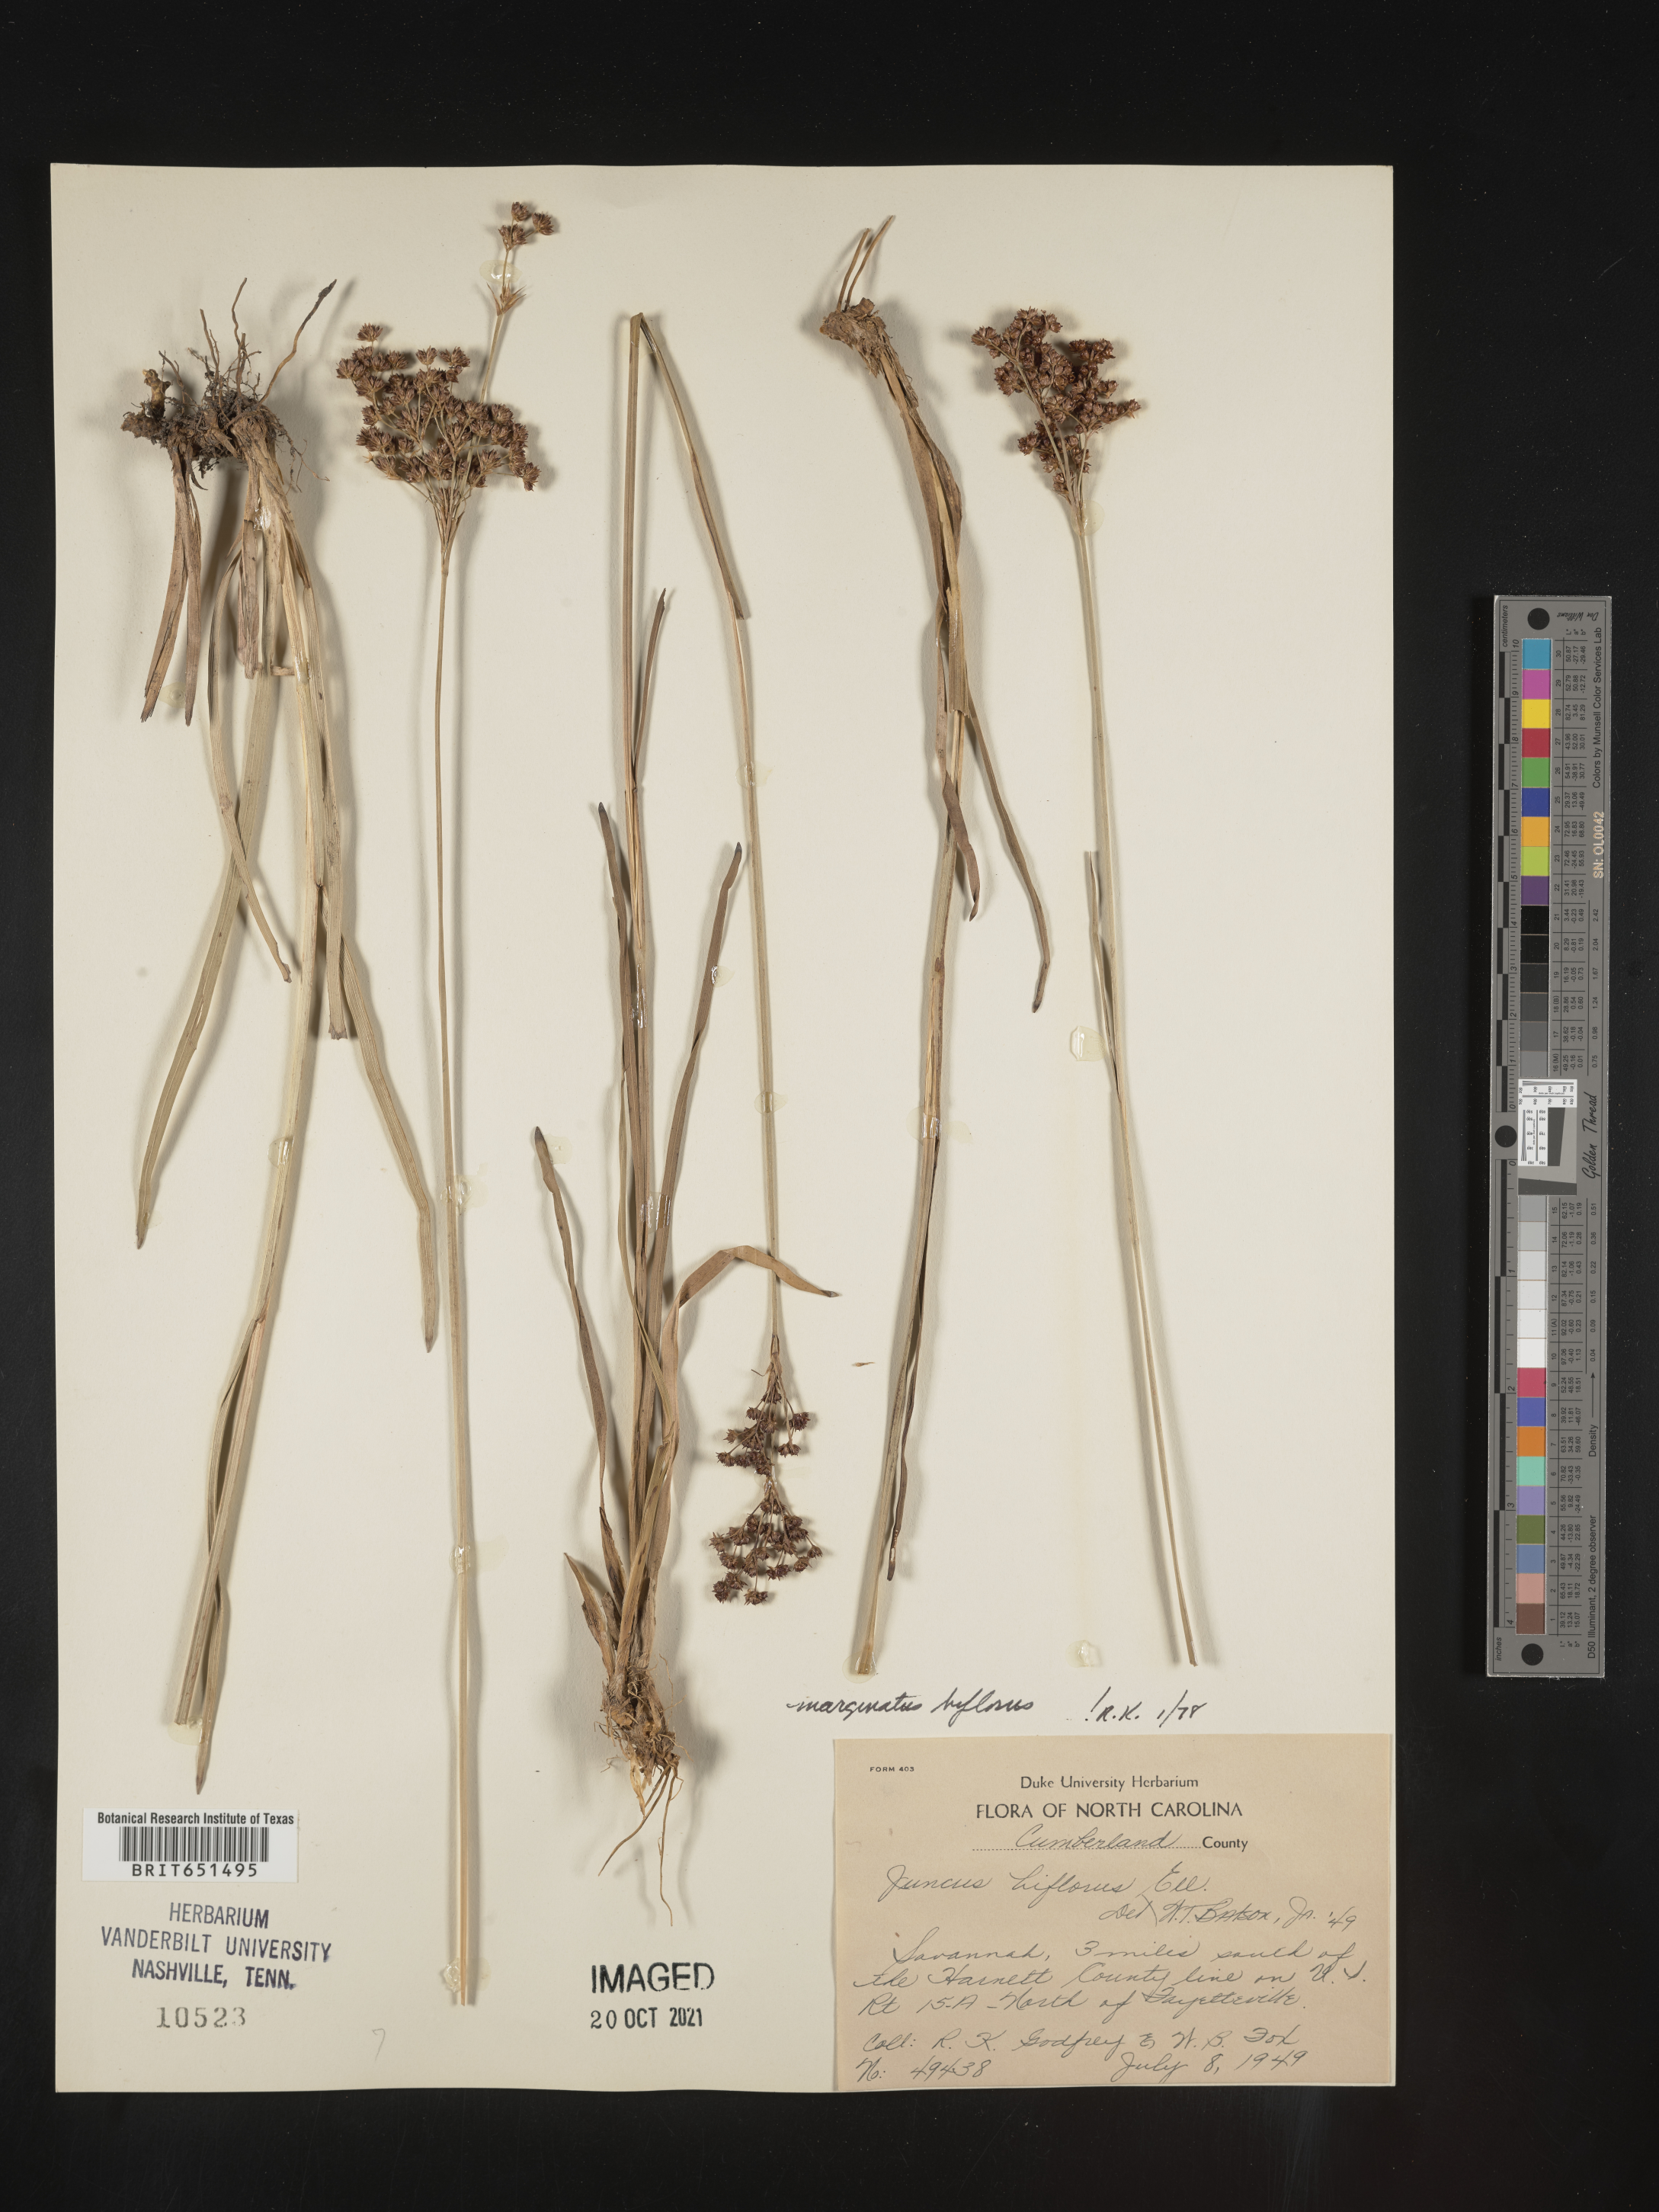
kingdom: Plantae
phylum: Tracheophyta
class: Liliopsida
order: Poales
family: Juncaceae
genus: Juncus
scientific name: Juncus biflorus
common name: Two-flowered rush
